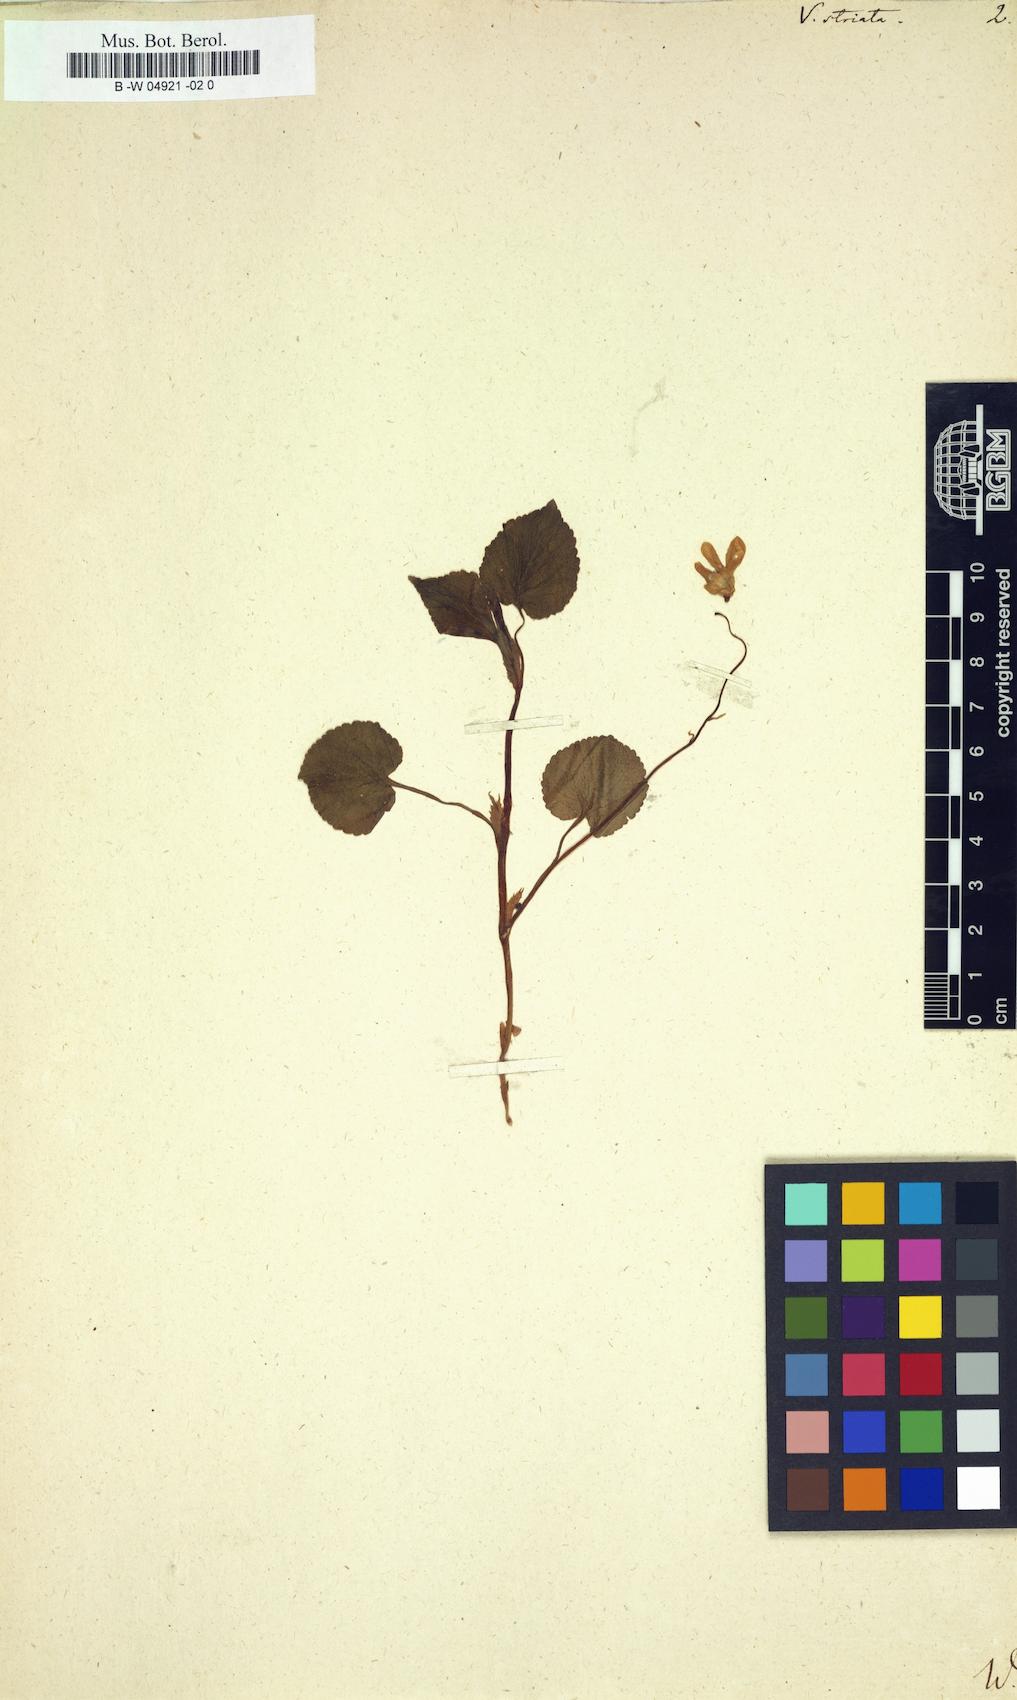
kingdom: Plantae
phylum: Tracheophyta
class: Magnoliopsida
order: Malpighiales
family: Violaceae
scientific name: Violaceae
